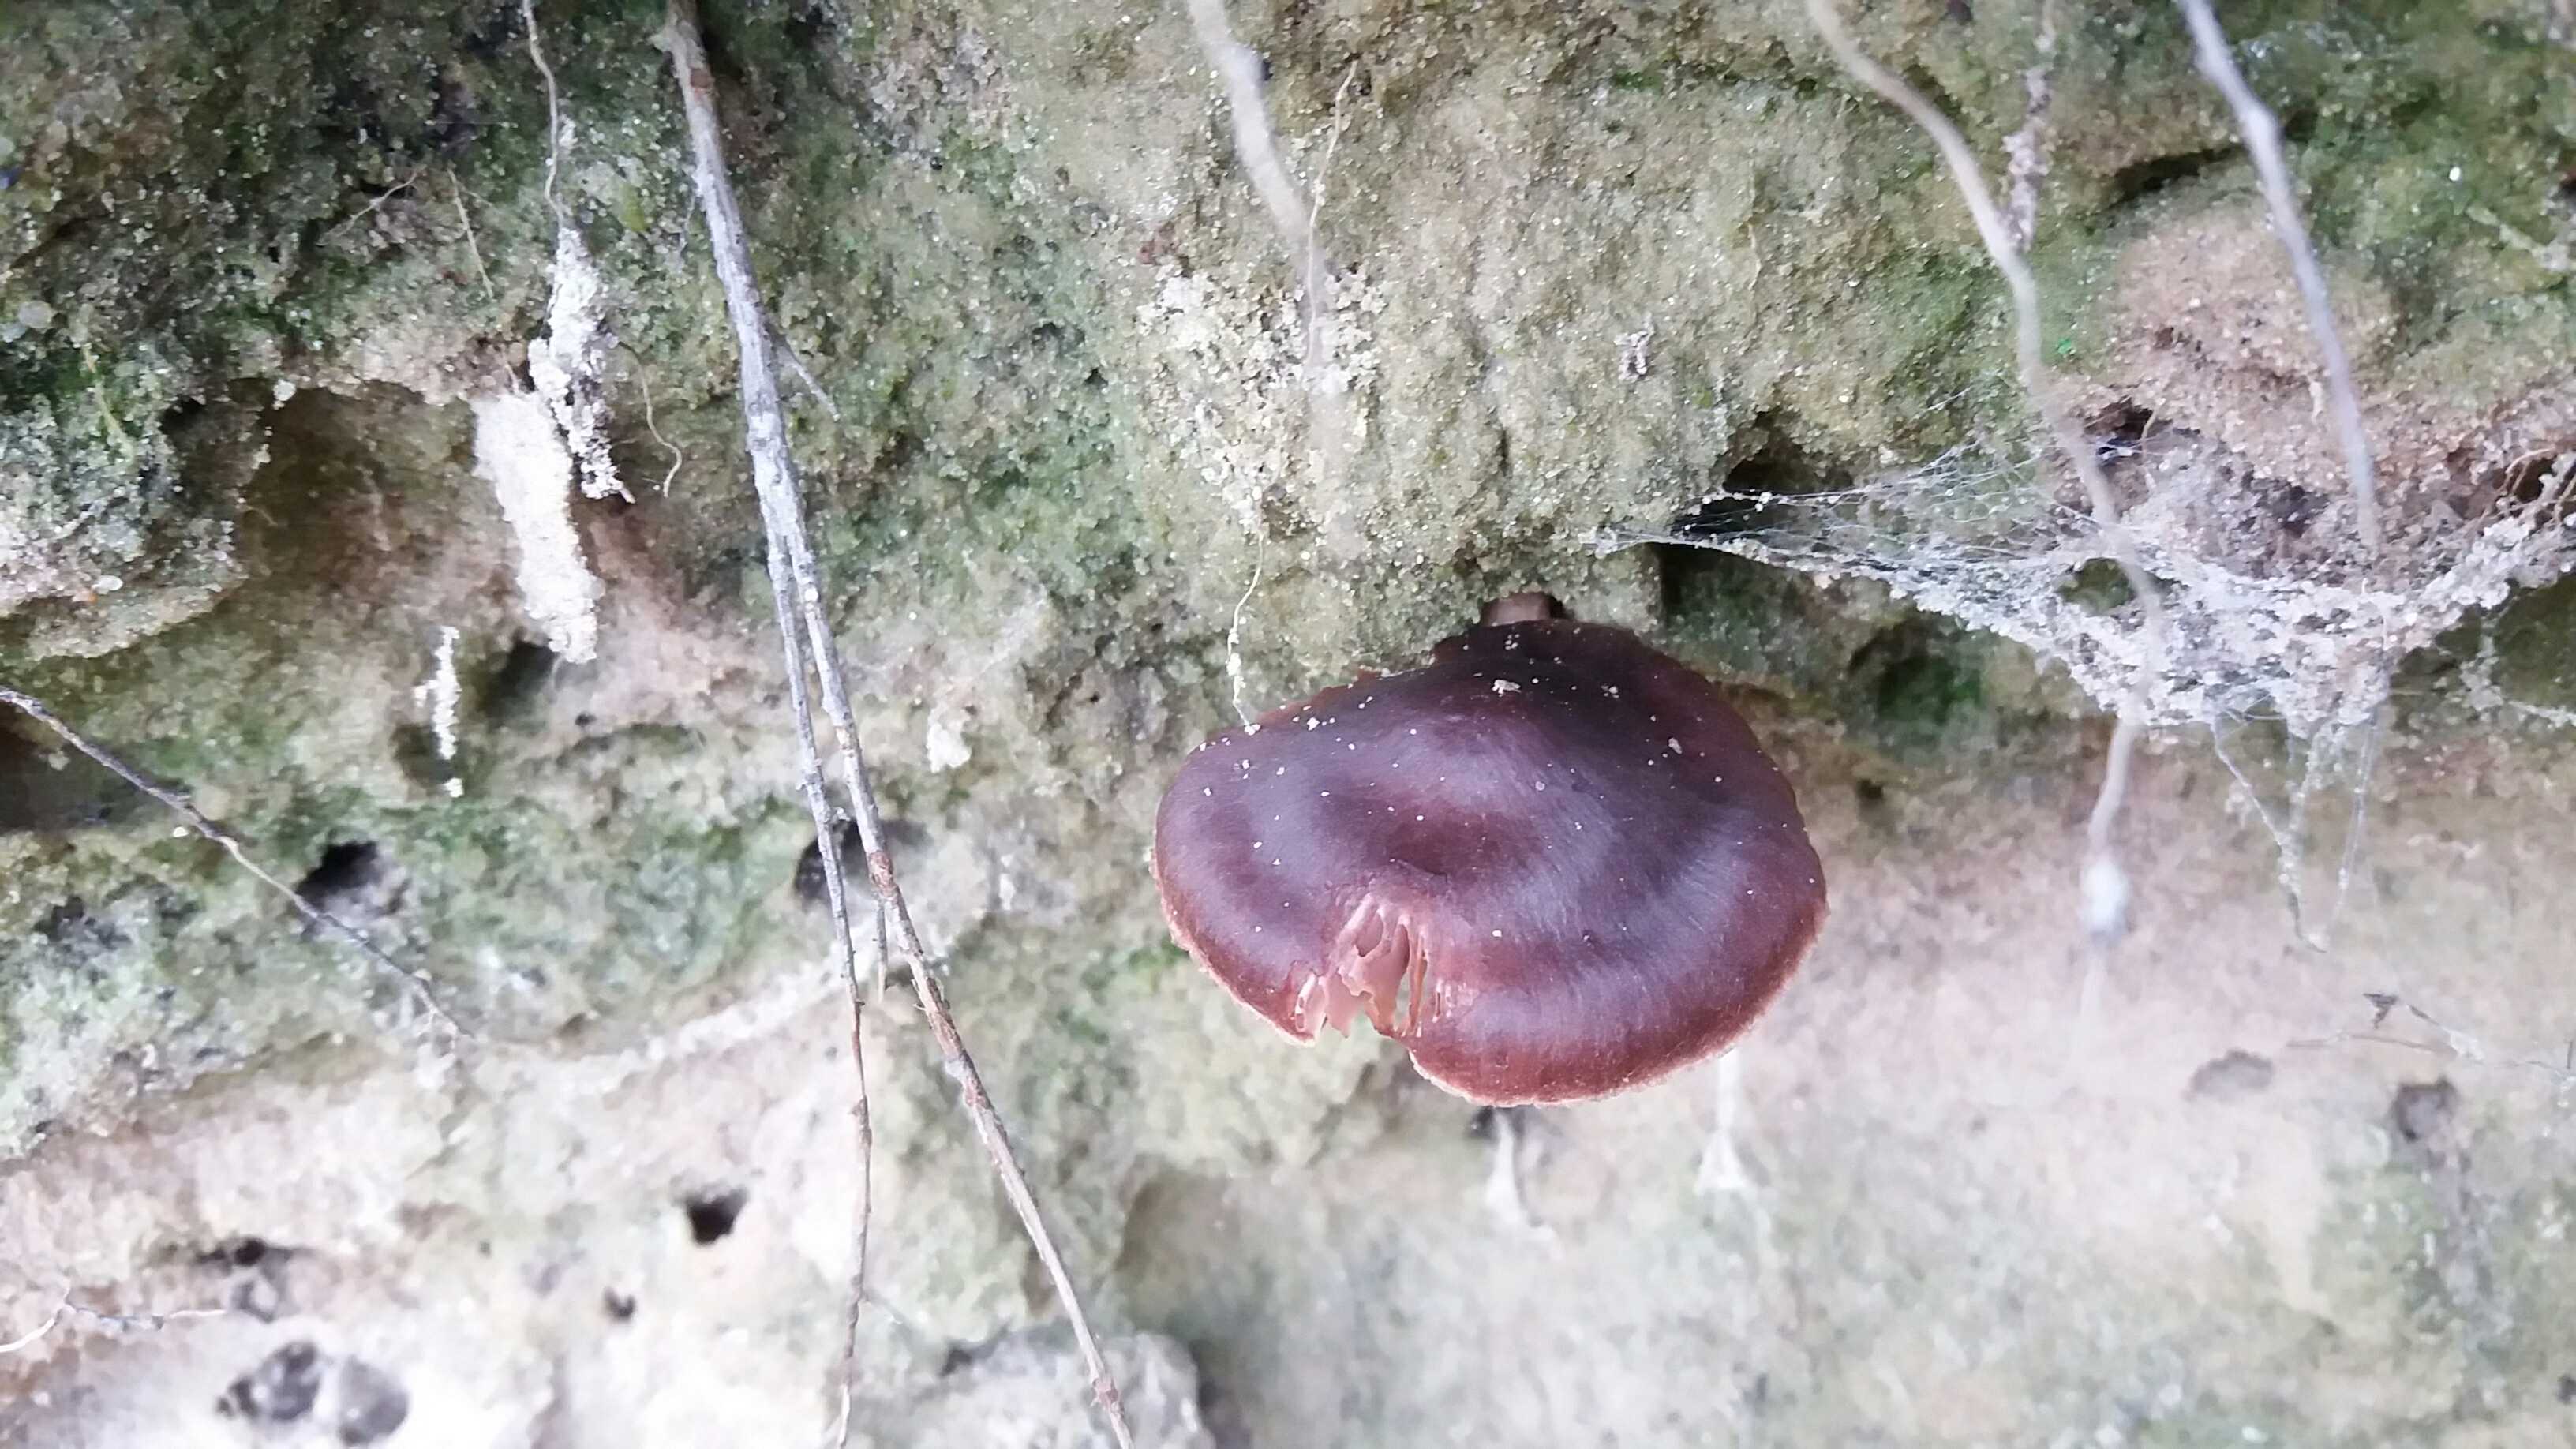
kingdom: Fungi
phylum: Basidiomycota
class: Agaricomycetes
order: Agaricales
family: Cortinariaceae
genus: Cortinarius
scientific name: Cortinarius
